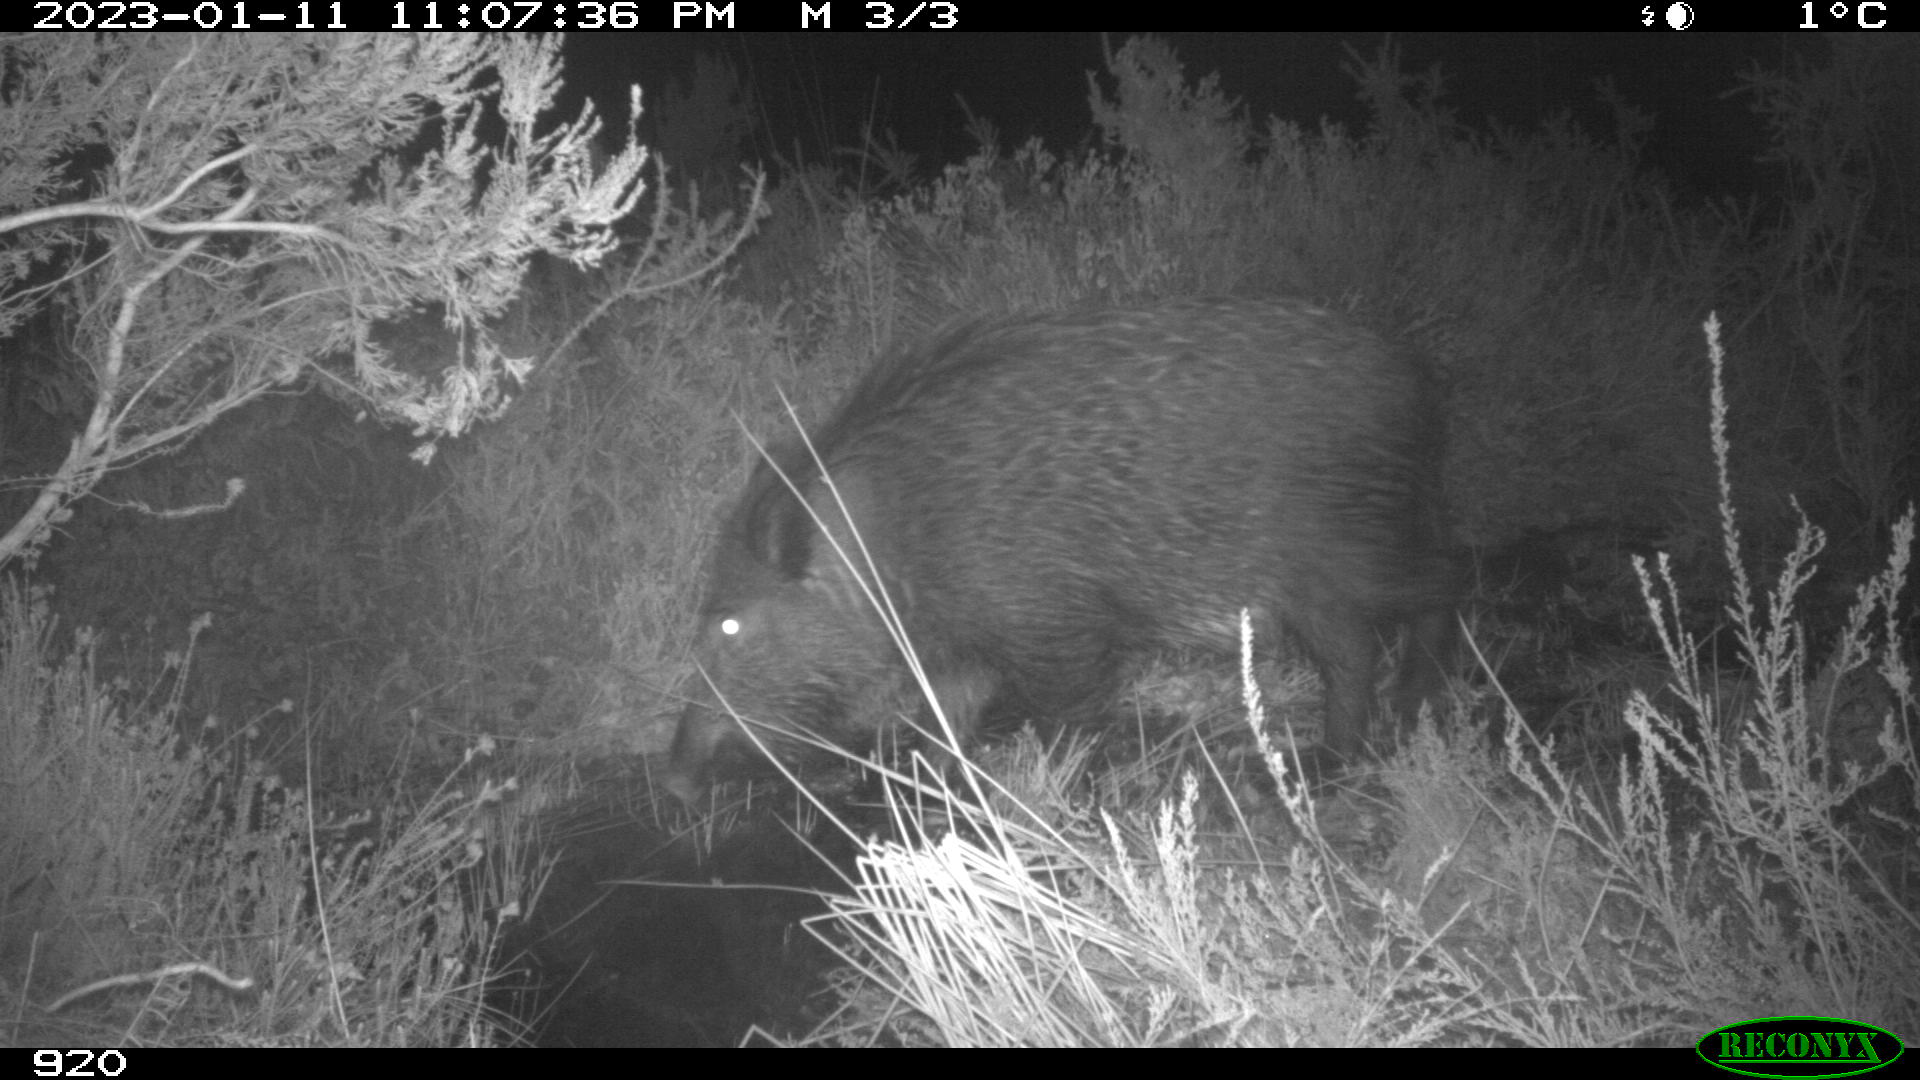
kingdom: Animalia
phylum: Chordata
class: Mammalia
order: Artiodactyla
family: Suidae
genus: Sus
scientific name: Sus scrofa
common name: Wild boar
